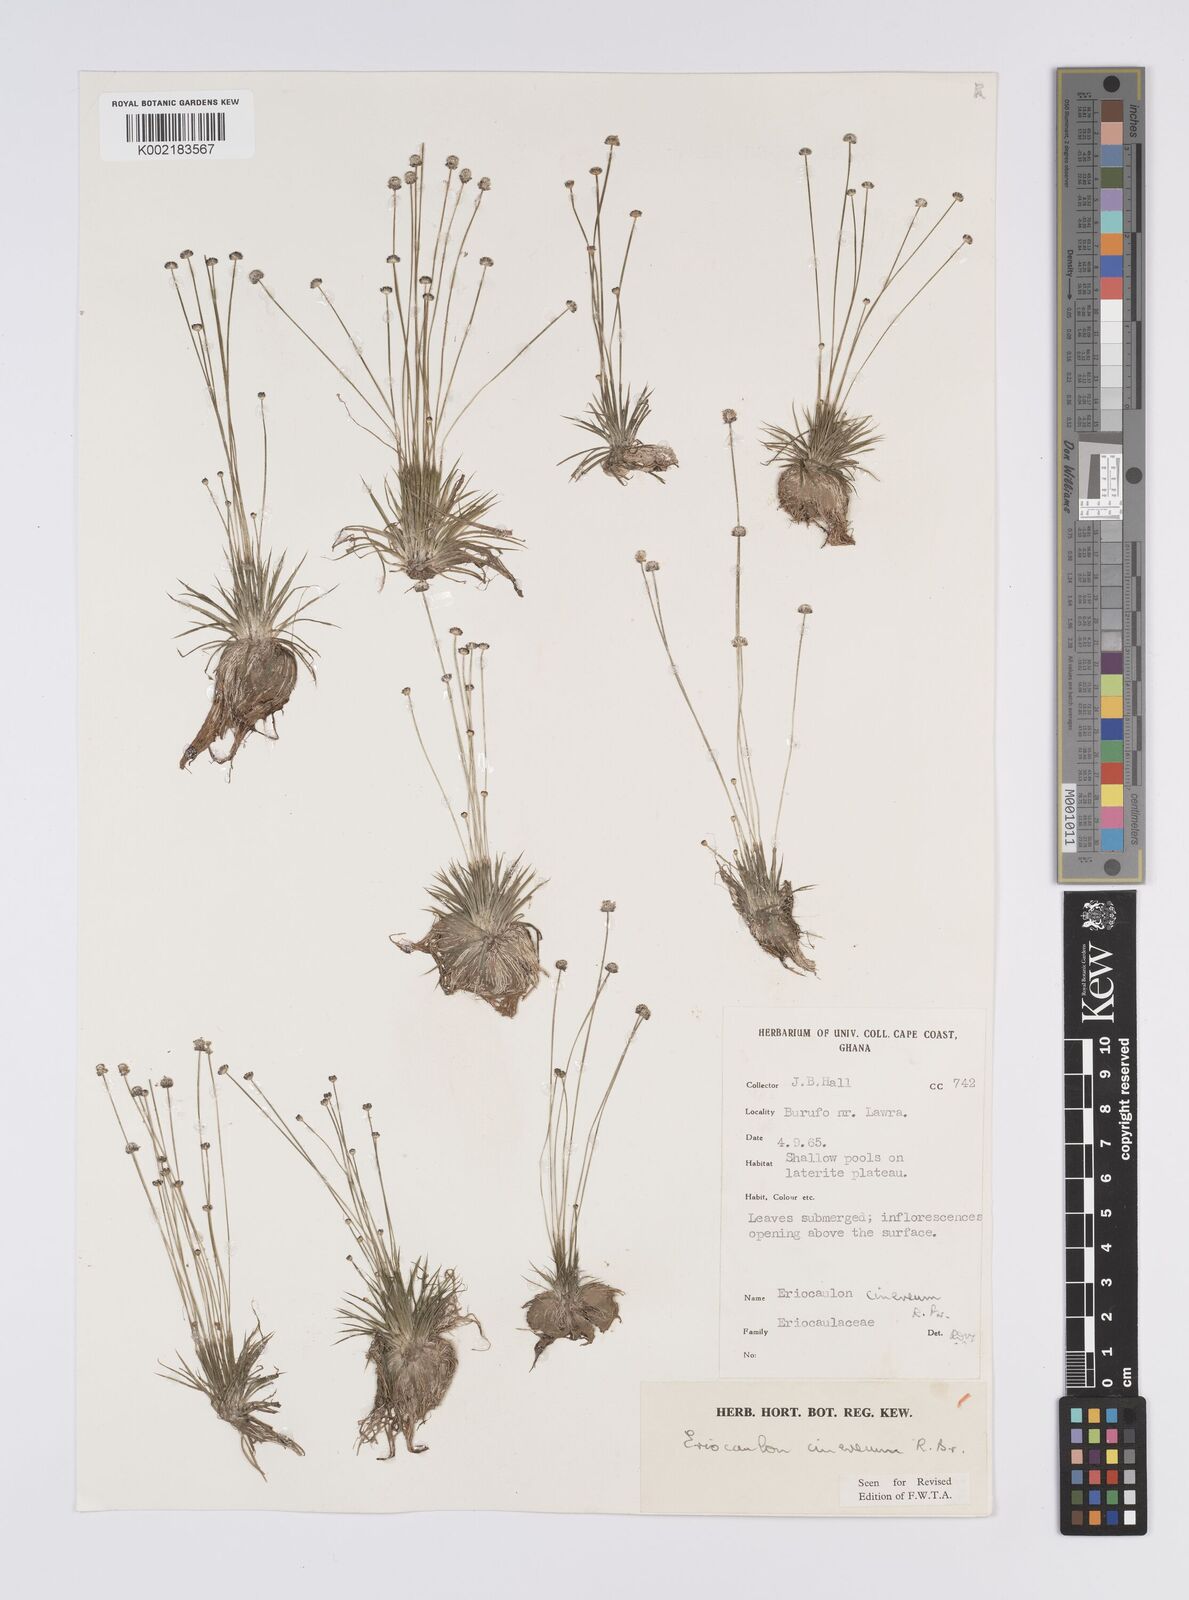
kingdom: Plantae
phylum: Tracheophyta
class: Liliopsida
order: Poales
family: Eriocaulaceae
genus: Eriocaulon
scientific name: Eriocaulon cinereum
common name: Ashy pipewort
